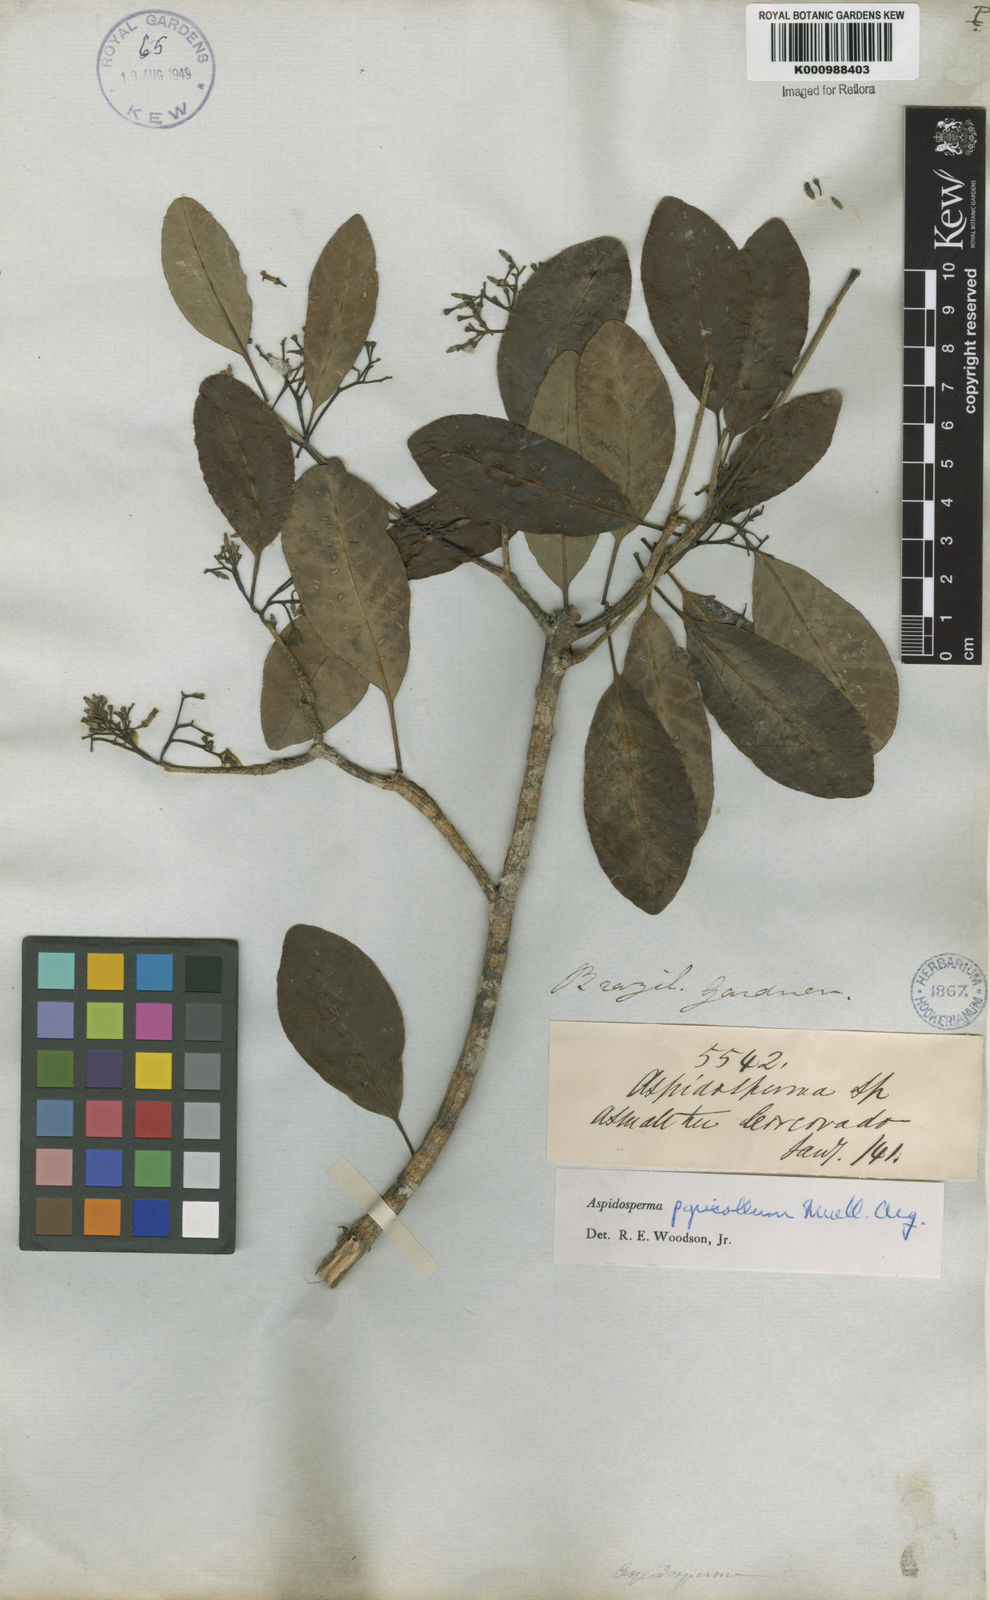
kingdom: Plantae
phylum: Tracheophyta
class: Magnoliopsida
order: Gentianales
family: Apocynaceae
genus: Aspidosperma
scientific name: Aspidosperma
